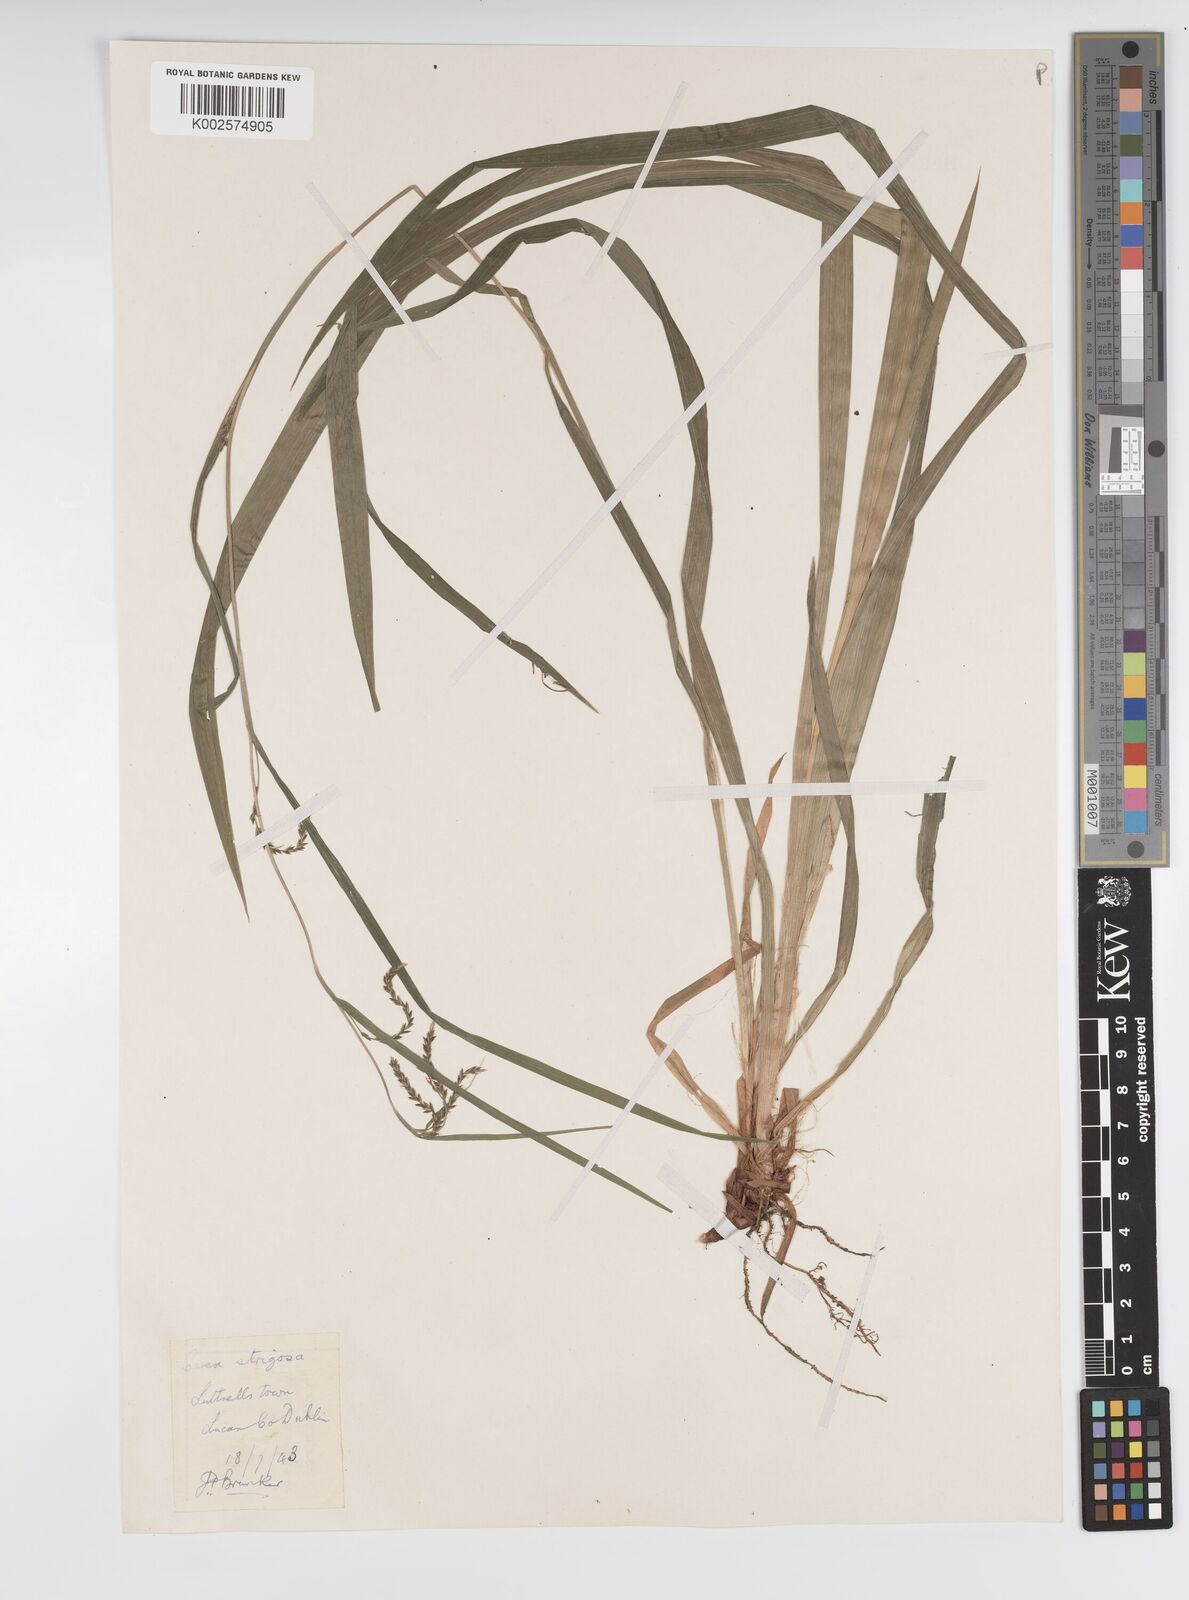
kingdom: Plantae
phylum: Tracheophyta
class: Liliopsida
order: Poales
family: Cyperaceae
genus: Carex
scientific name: Carex strigosa
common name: Thin-spiked wood-sedge
